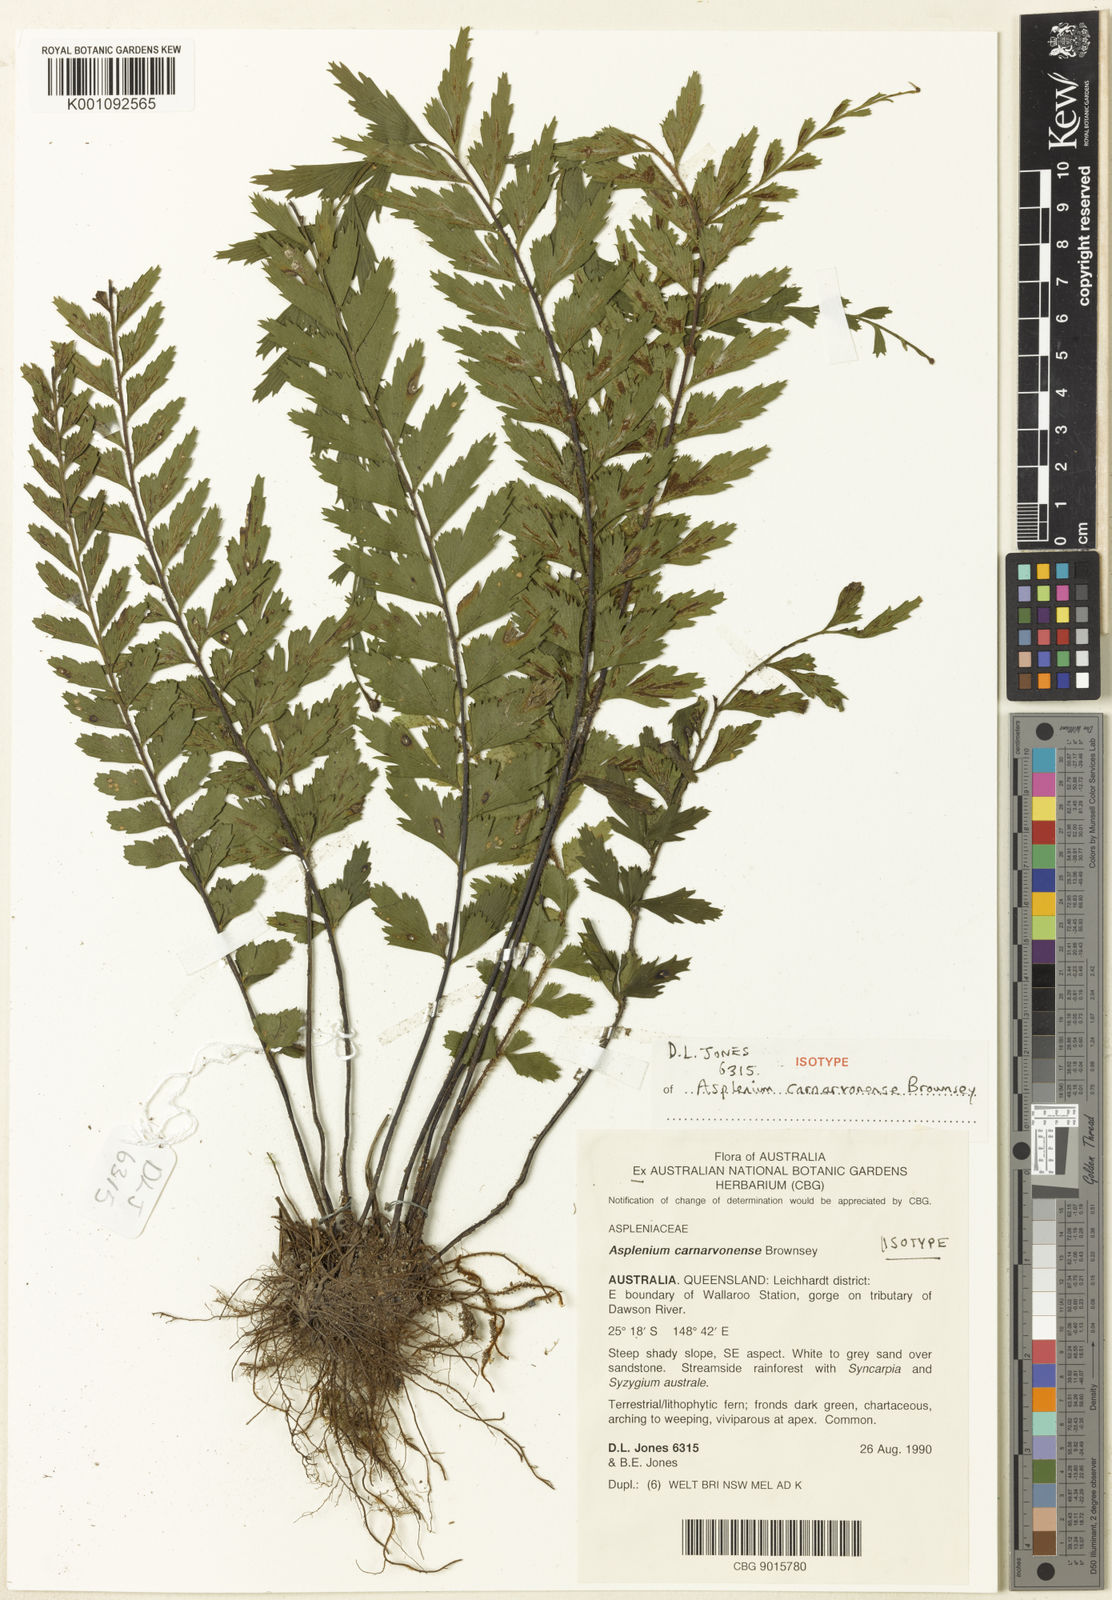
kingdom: Plantae
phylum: Tracheophyta
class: Polypodiopsida
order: Polypodiales
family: Aspleniaceae
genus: Asplenium
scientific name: Asplenium carnarvonense
